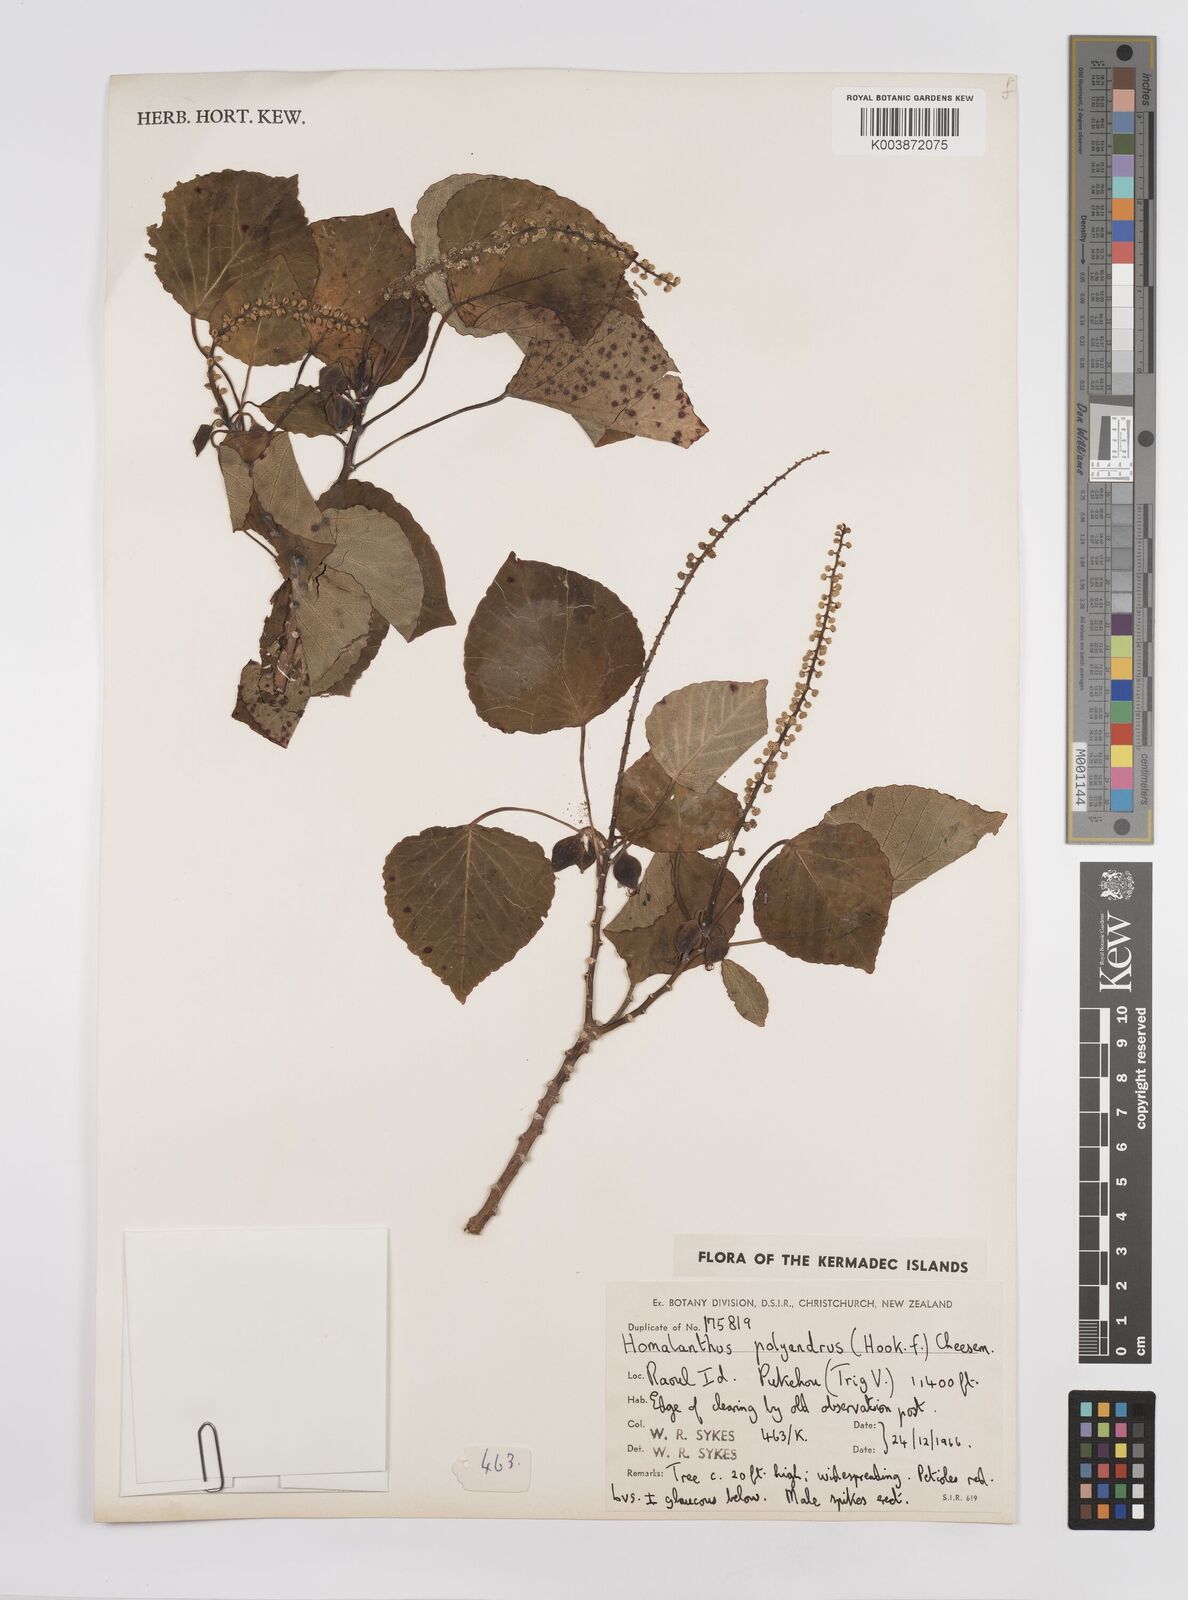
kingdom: Plantae
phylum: Tracheophyta
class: Magnoliopsida
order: Malpighiales
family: Euphorbiaceae
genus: Homalanthus
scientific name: Homalanthus polyandrus
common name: Kermadec poplar
